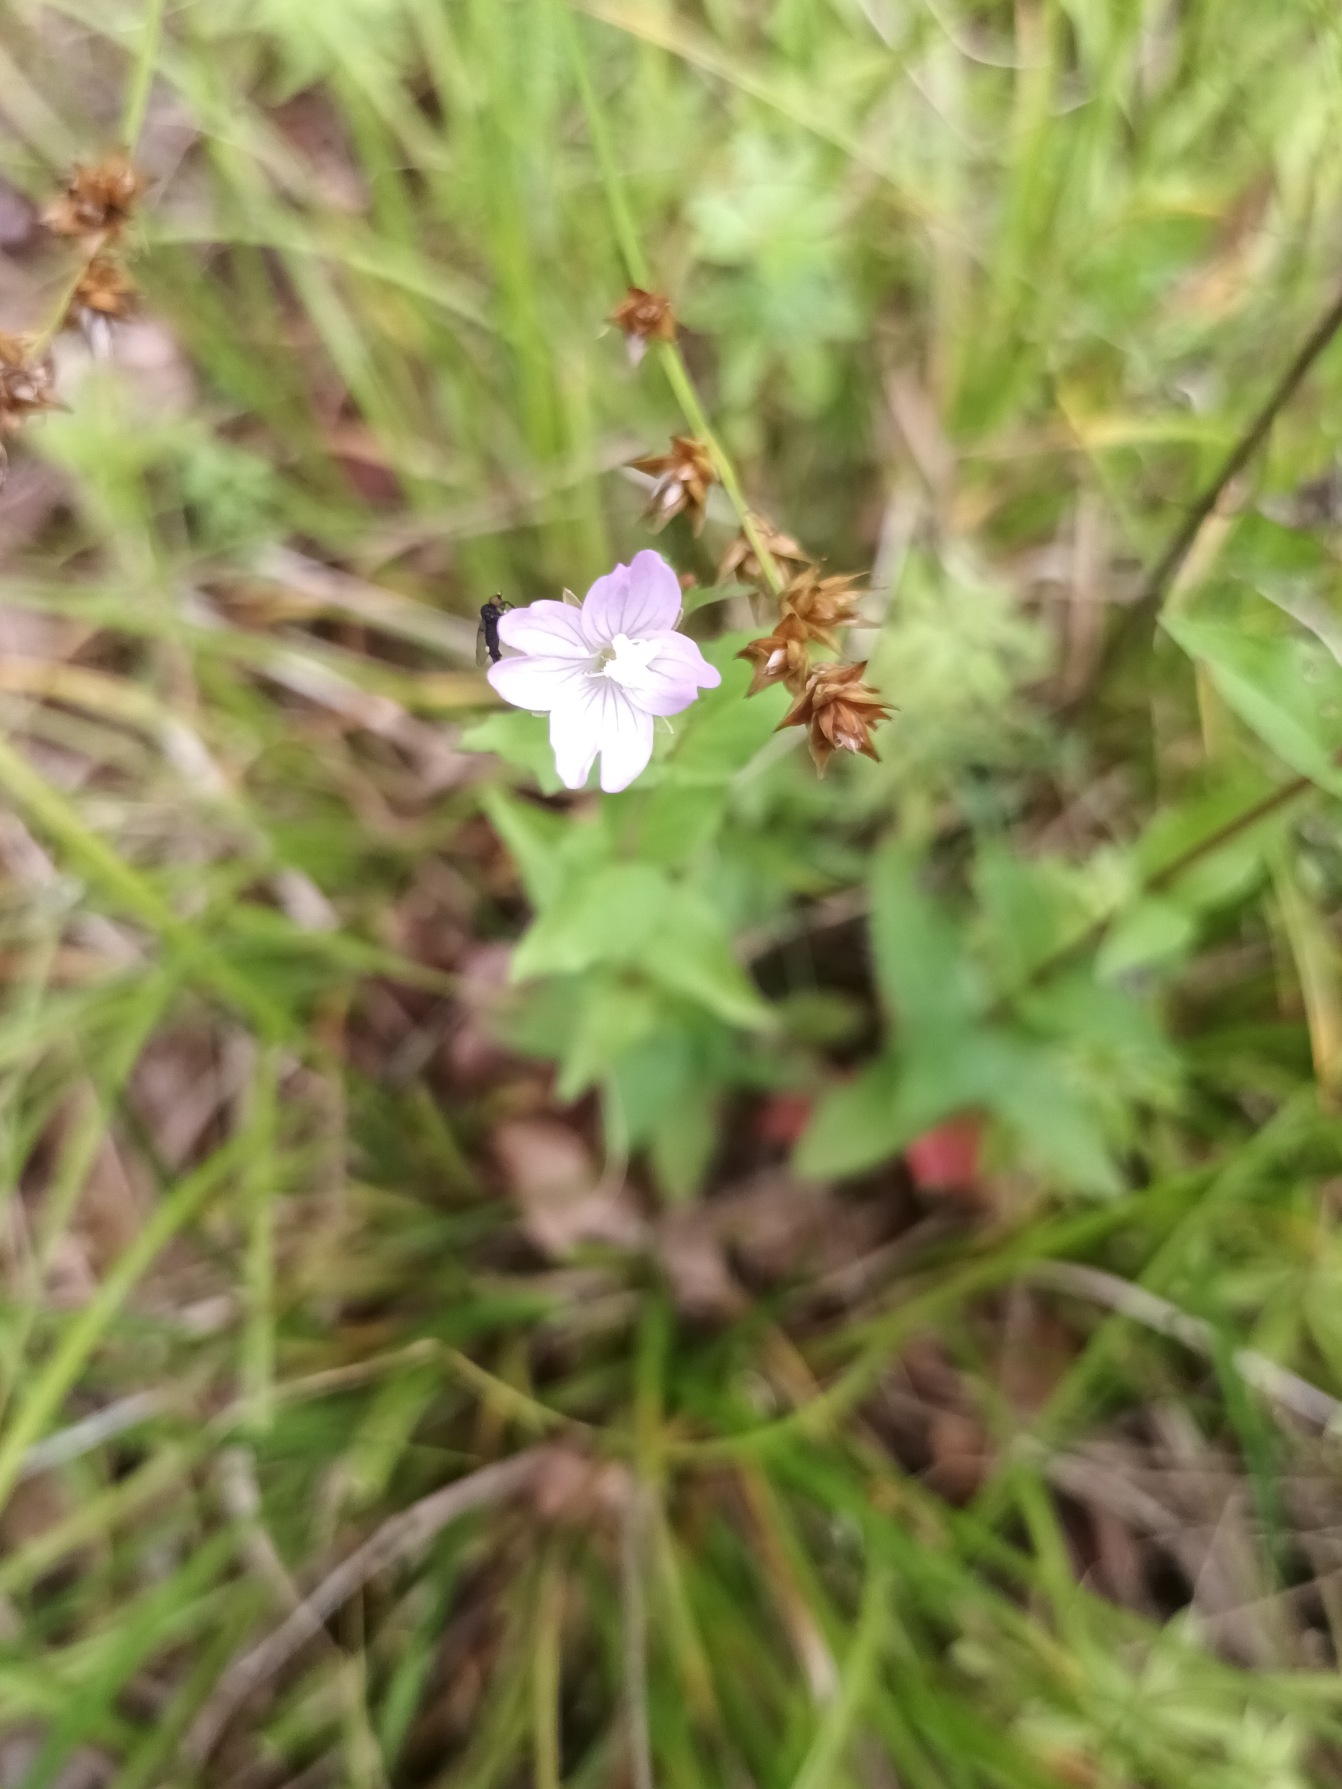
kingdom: Plantae
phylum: Tracheophyta
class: Magnoliopsida
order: Myrtales
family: Onagraceae
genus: Epilobium
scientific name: Epilobium montanum
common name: Glat dueurt
